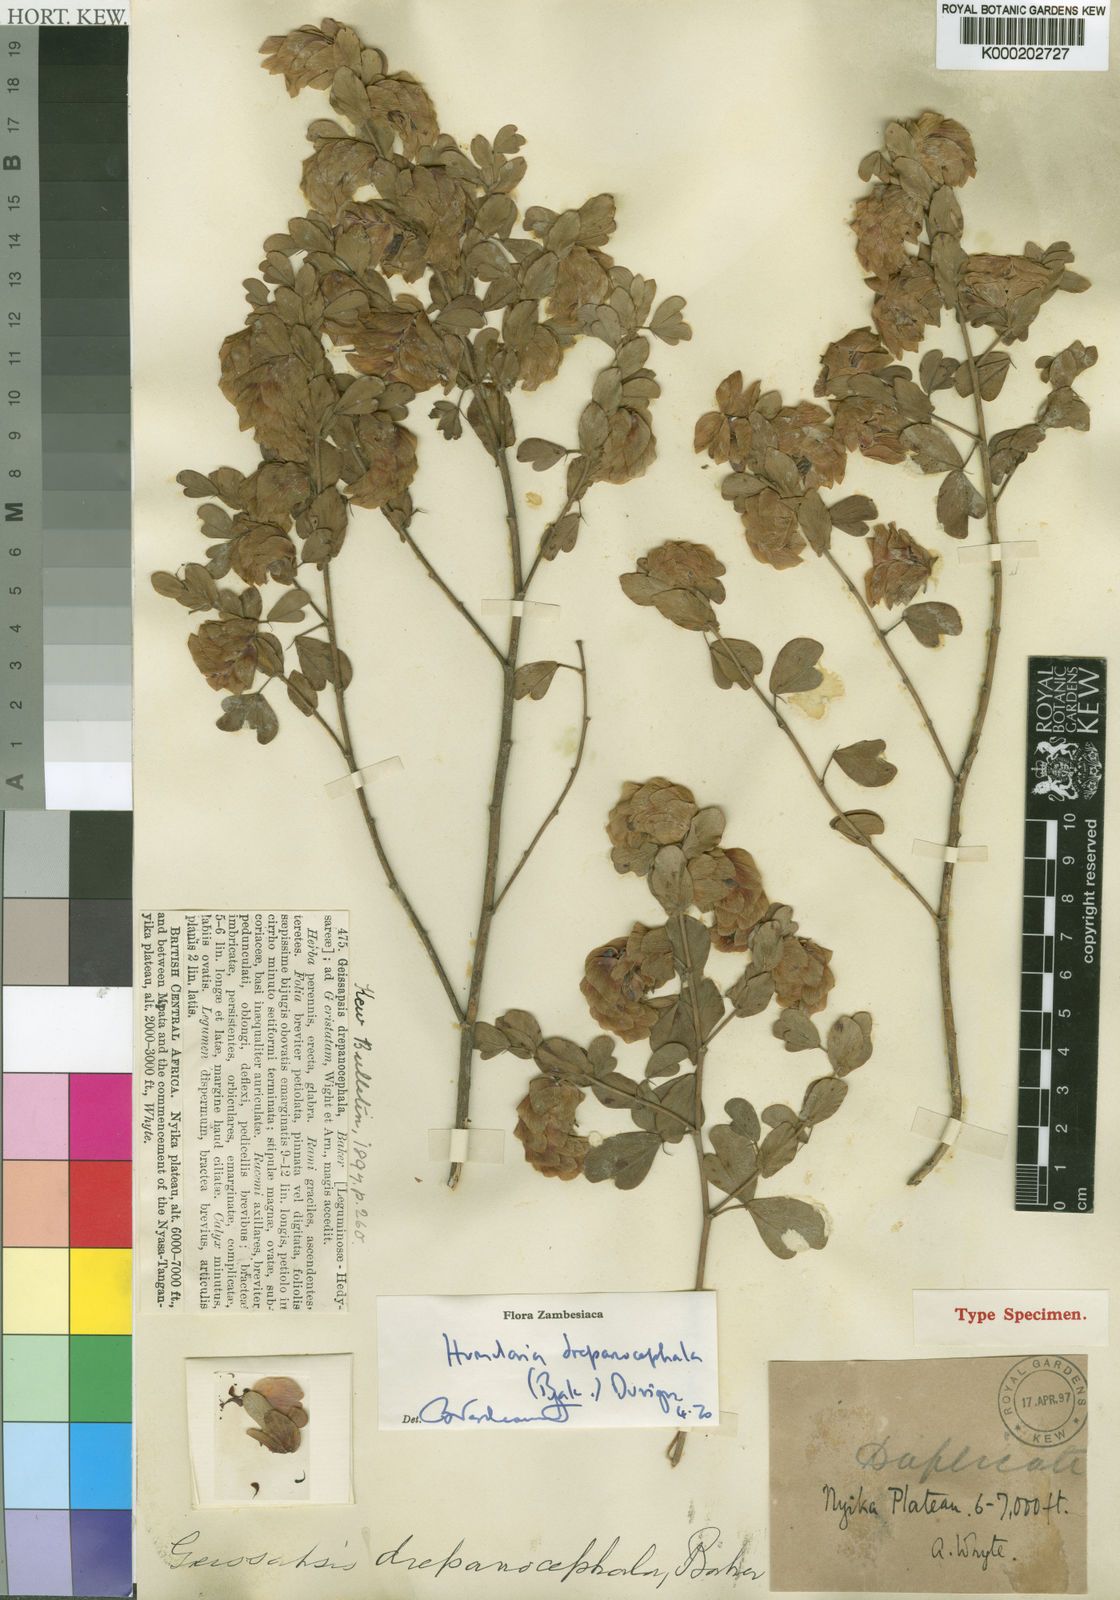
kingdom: Plantae
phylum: Tracheophyta
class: Magnoliopsida
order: Fabales
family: Fabaceae
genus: Humularia
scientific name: Humularia drepanocephala
